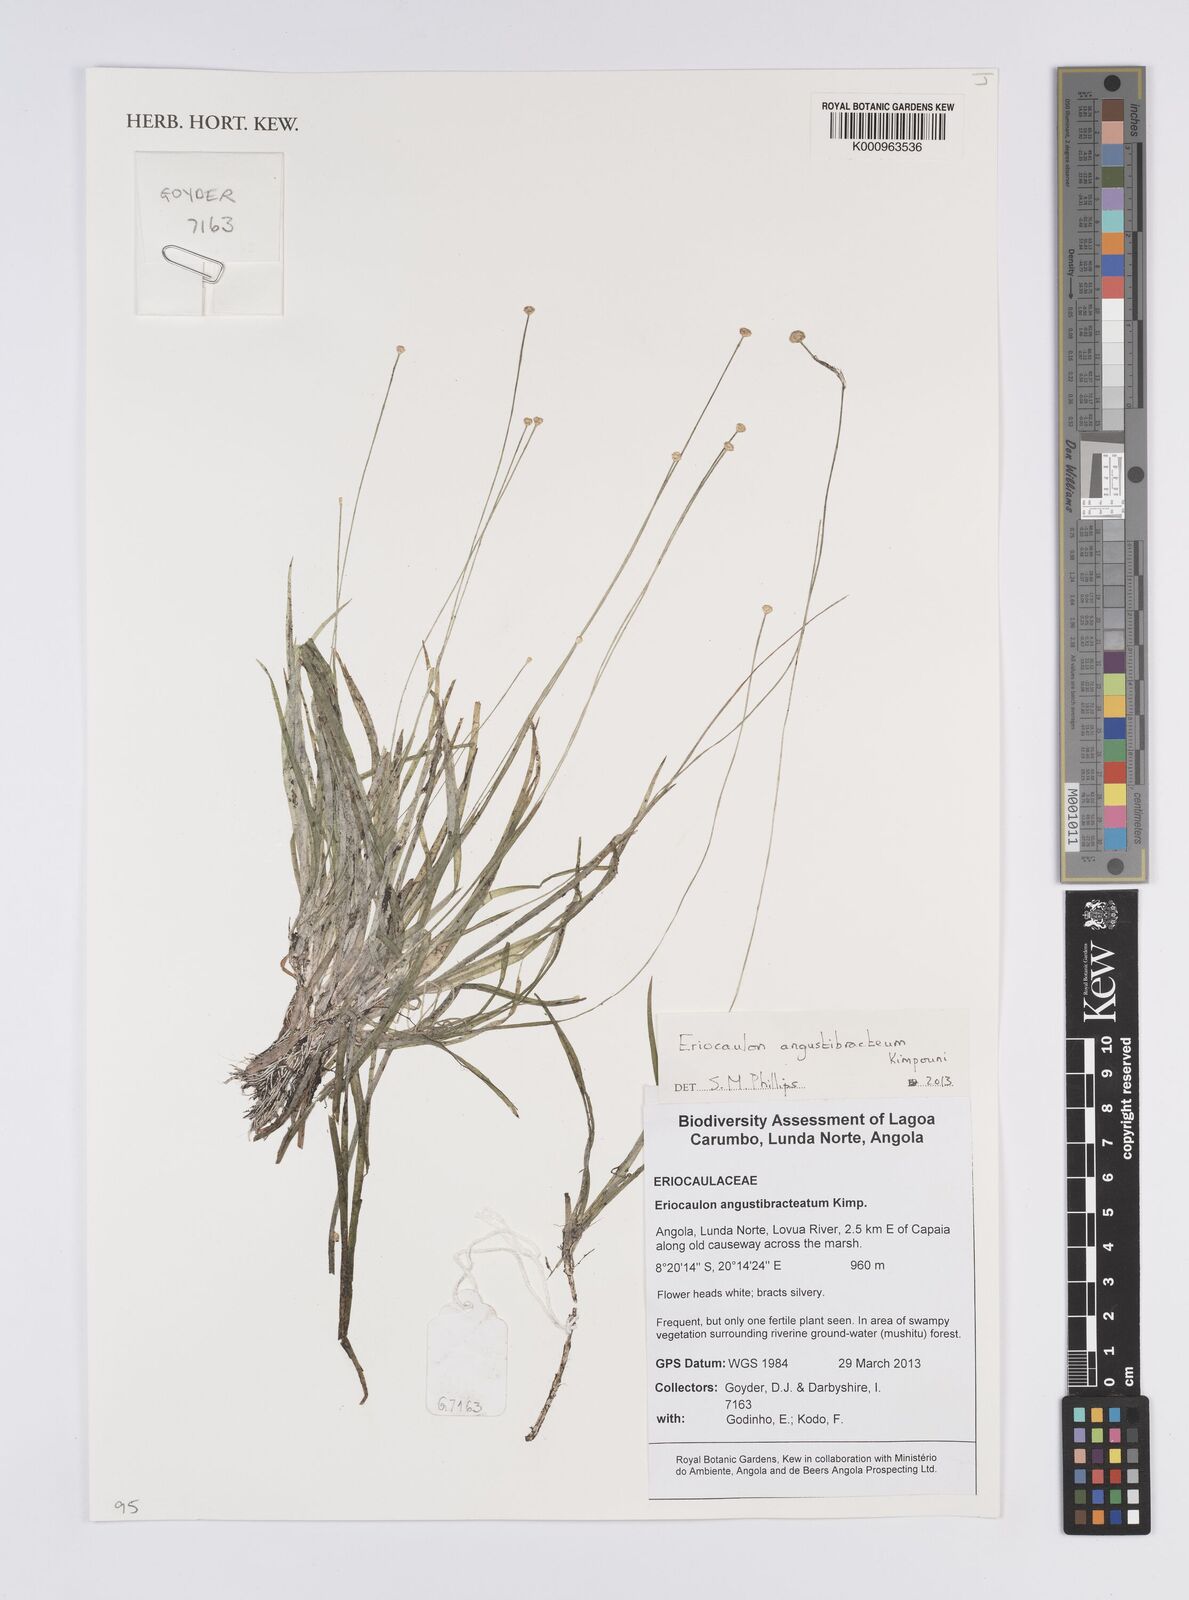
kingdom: Plantae
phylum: Tracheophyta
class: Liliopsida
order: Poales
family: Eriocaulaceae
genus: Eriocaulon
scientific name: Eriocaulon angustibracteum
